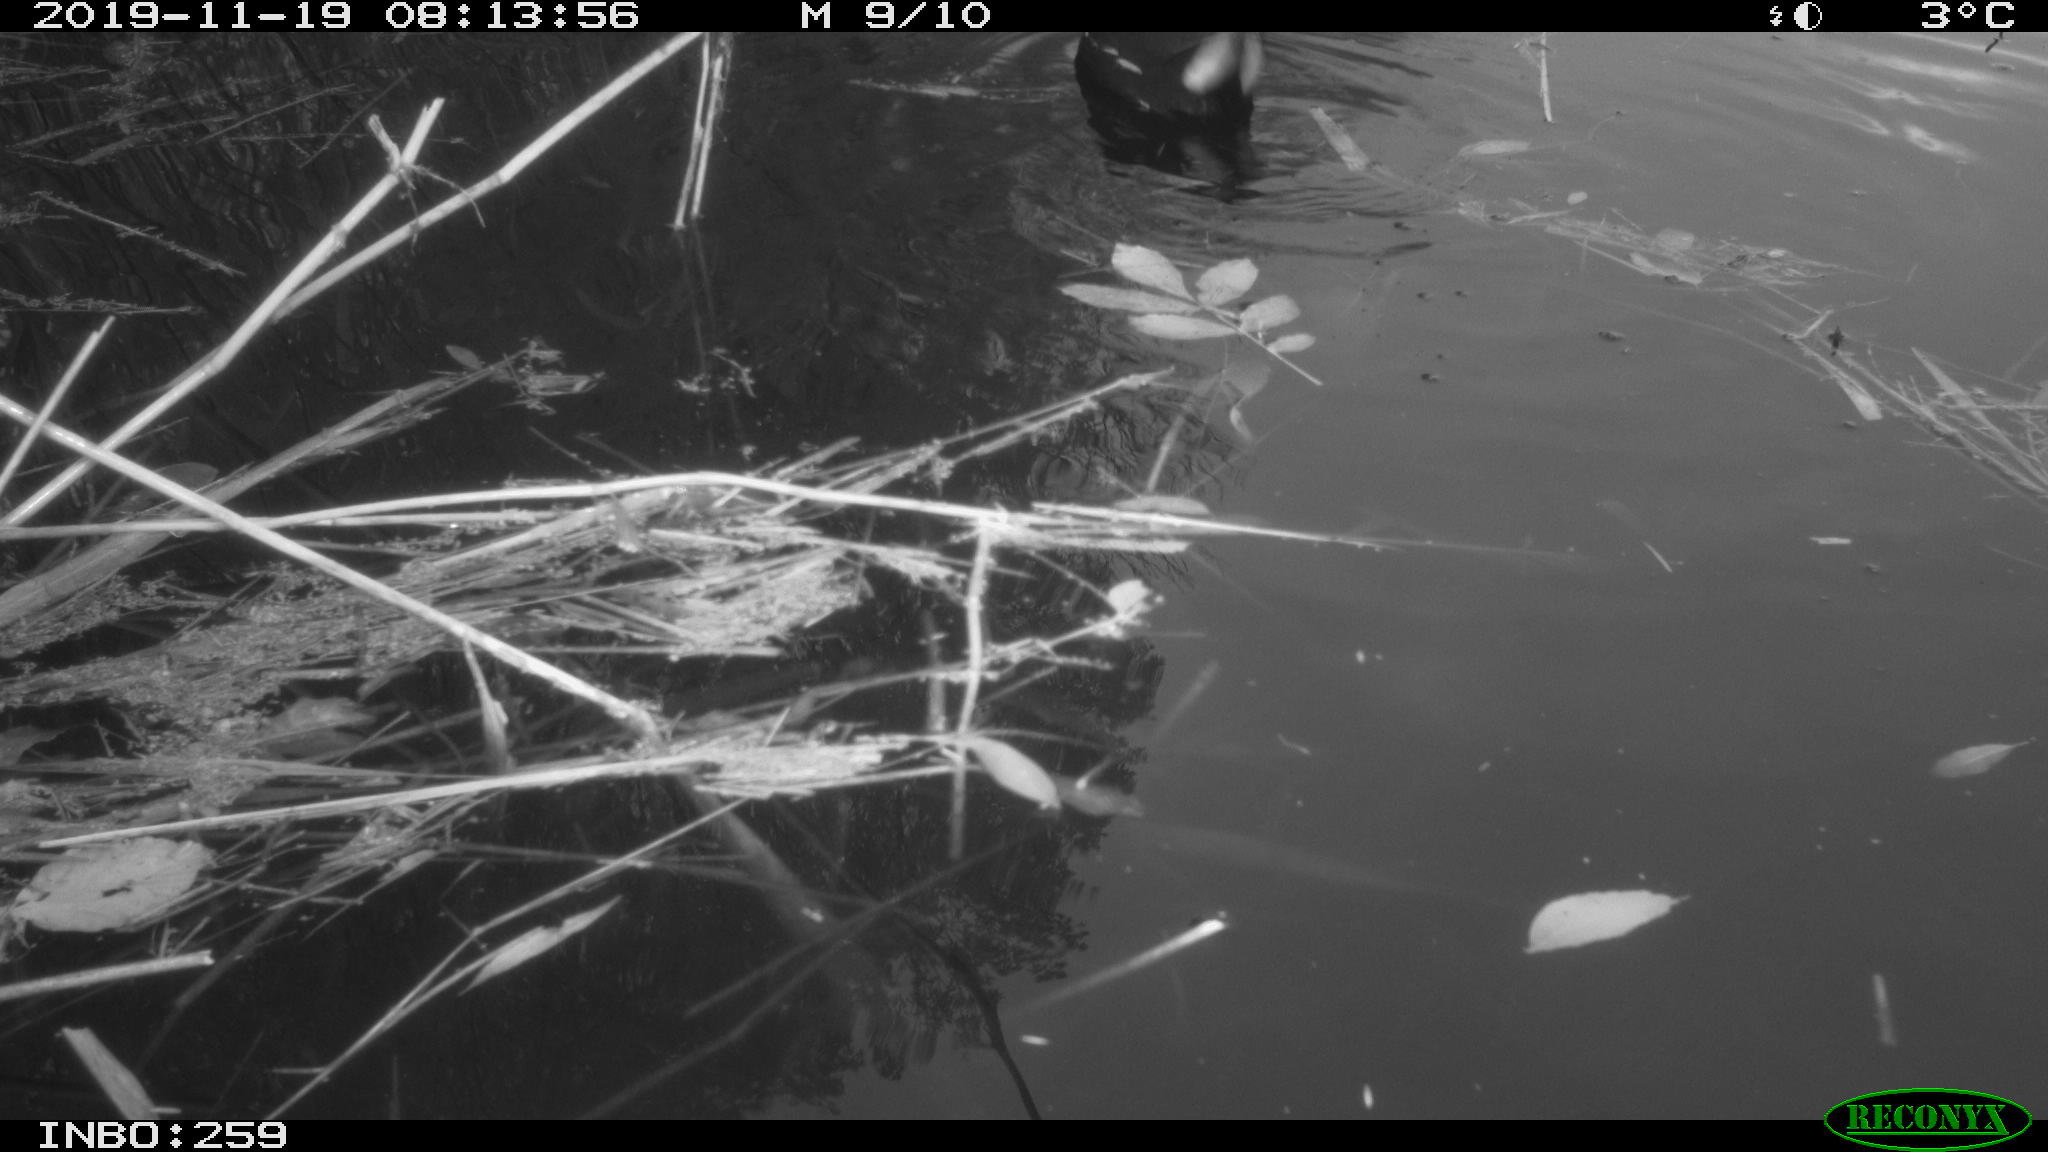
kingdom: Animalia
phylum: Chordata
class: Aves
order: Gruiformes
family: Rallidae
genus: Gallinula
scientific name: Gallinula chloropus
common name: Common moorhen
